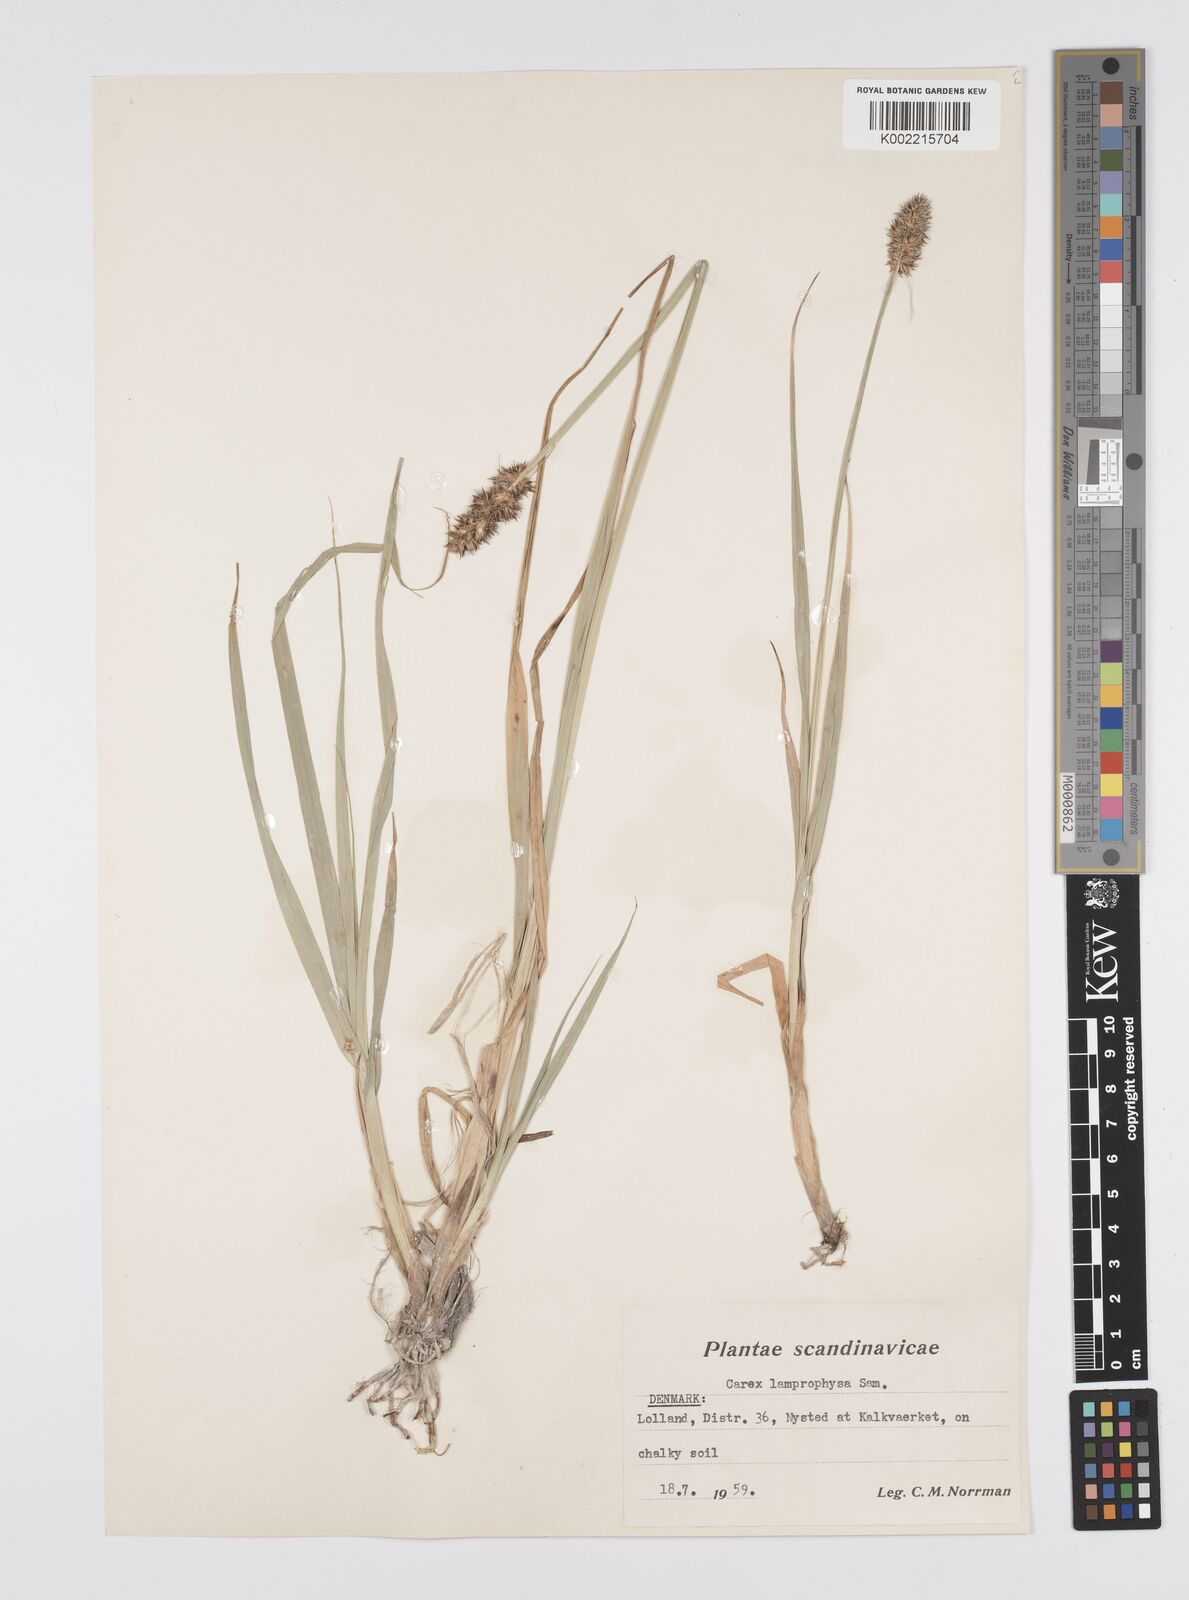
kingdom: Plantae
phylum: Tracheophyta
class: Liliopsida
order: Poales
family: Cyperaceae
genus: Carex
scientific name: Carex otrubae
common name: False fox-sedge
